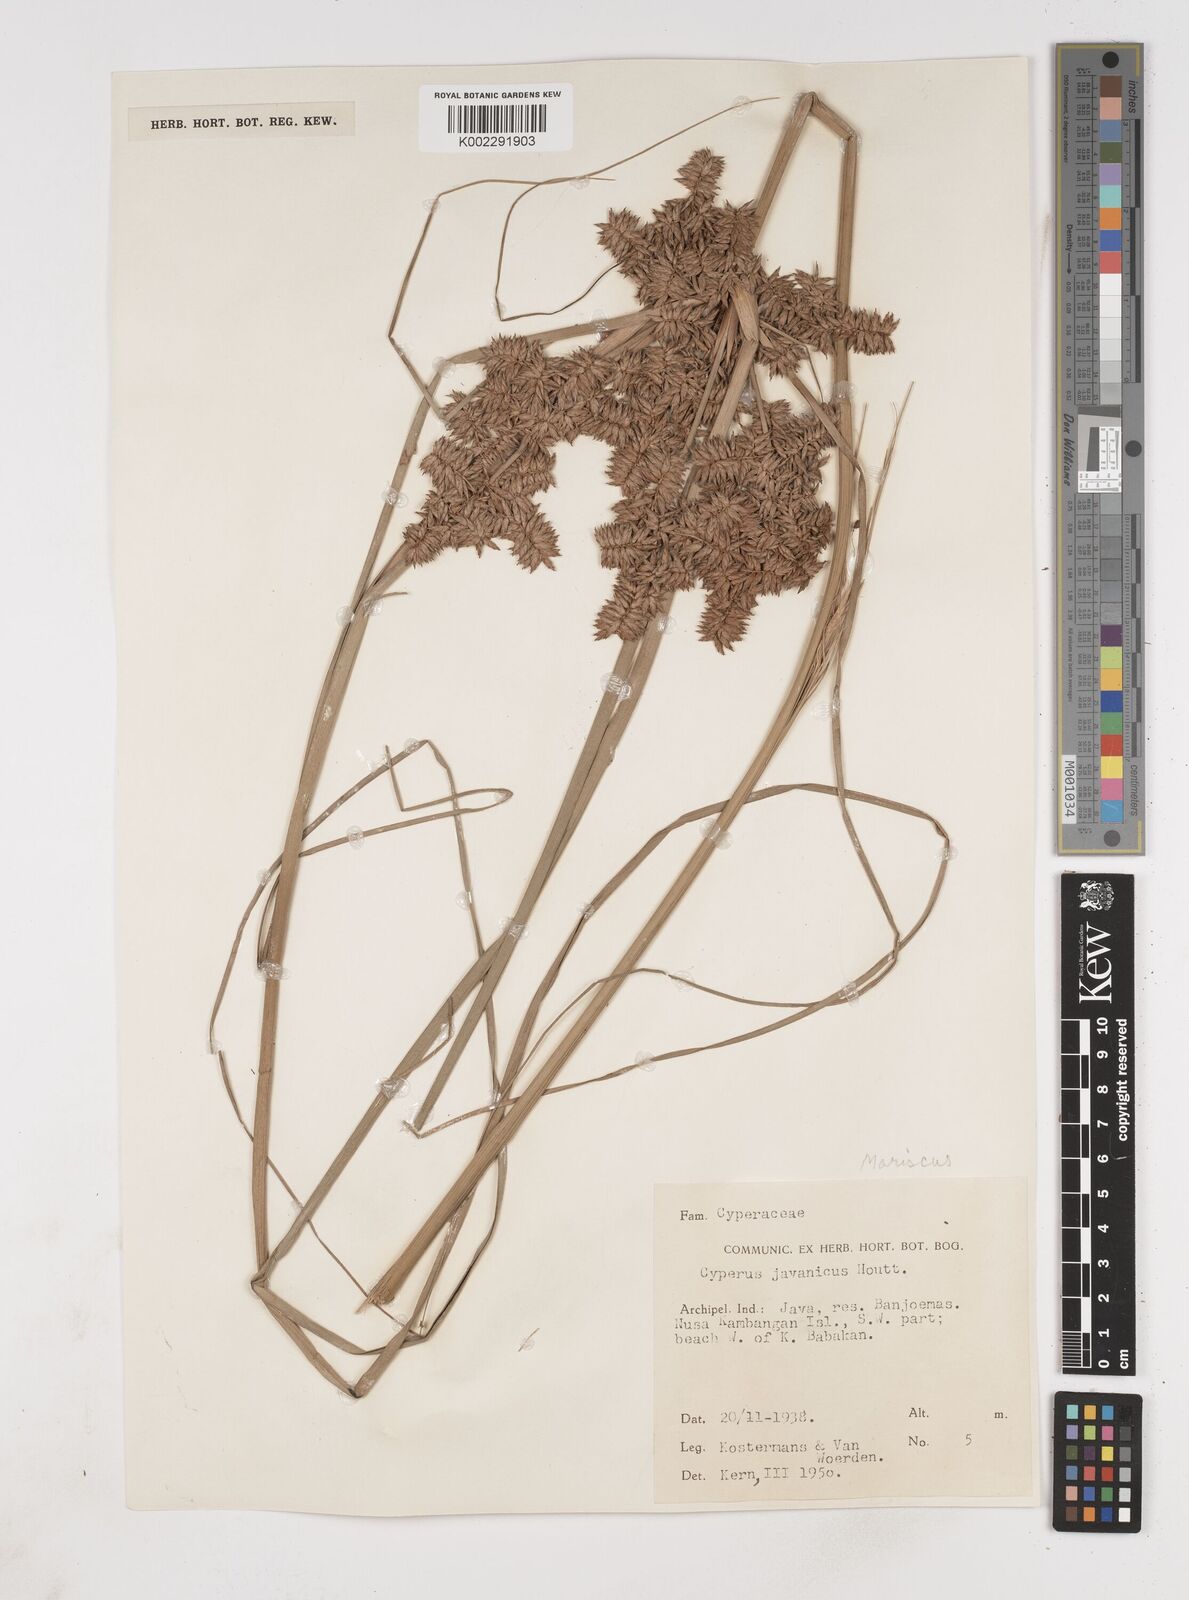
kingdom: Plantae
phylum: Tracheophyta
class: Liliopsida
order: Poales
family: Cyperaceae
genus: Cyperus
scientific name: Cyperus javanicus
